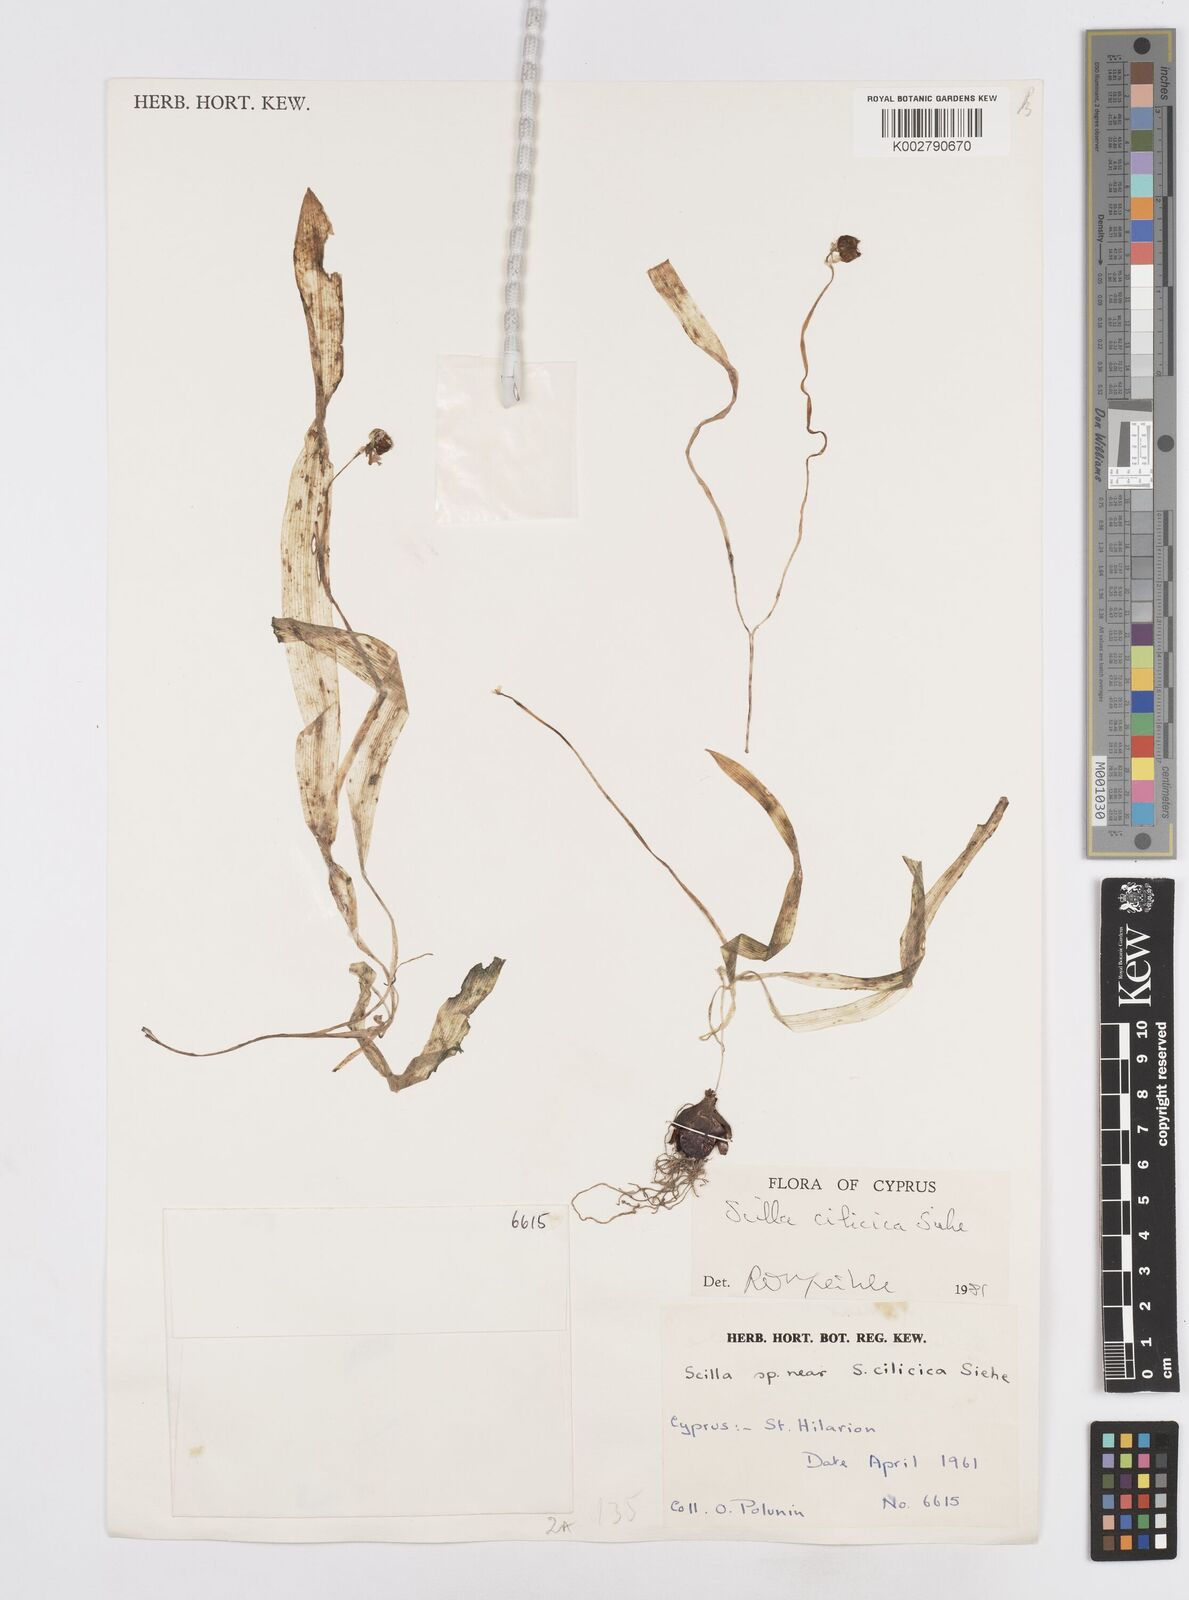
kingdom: Plantae
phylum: Tracheophyta
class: Liliopsida
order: Asparagales
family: Asparagaceae
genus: Scilla
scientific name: Scilla siberica
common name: Siberian squill
